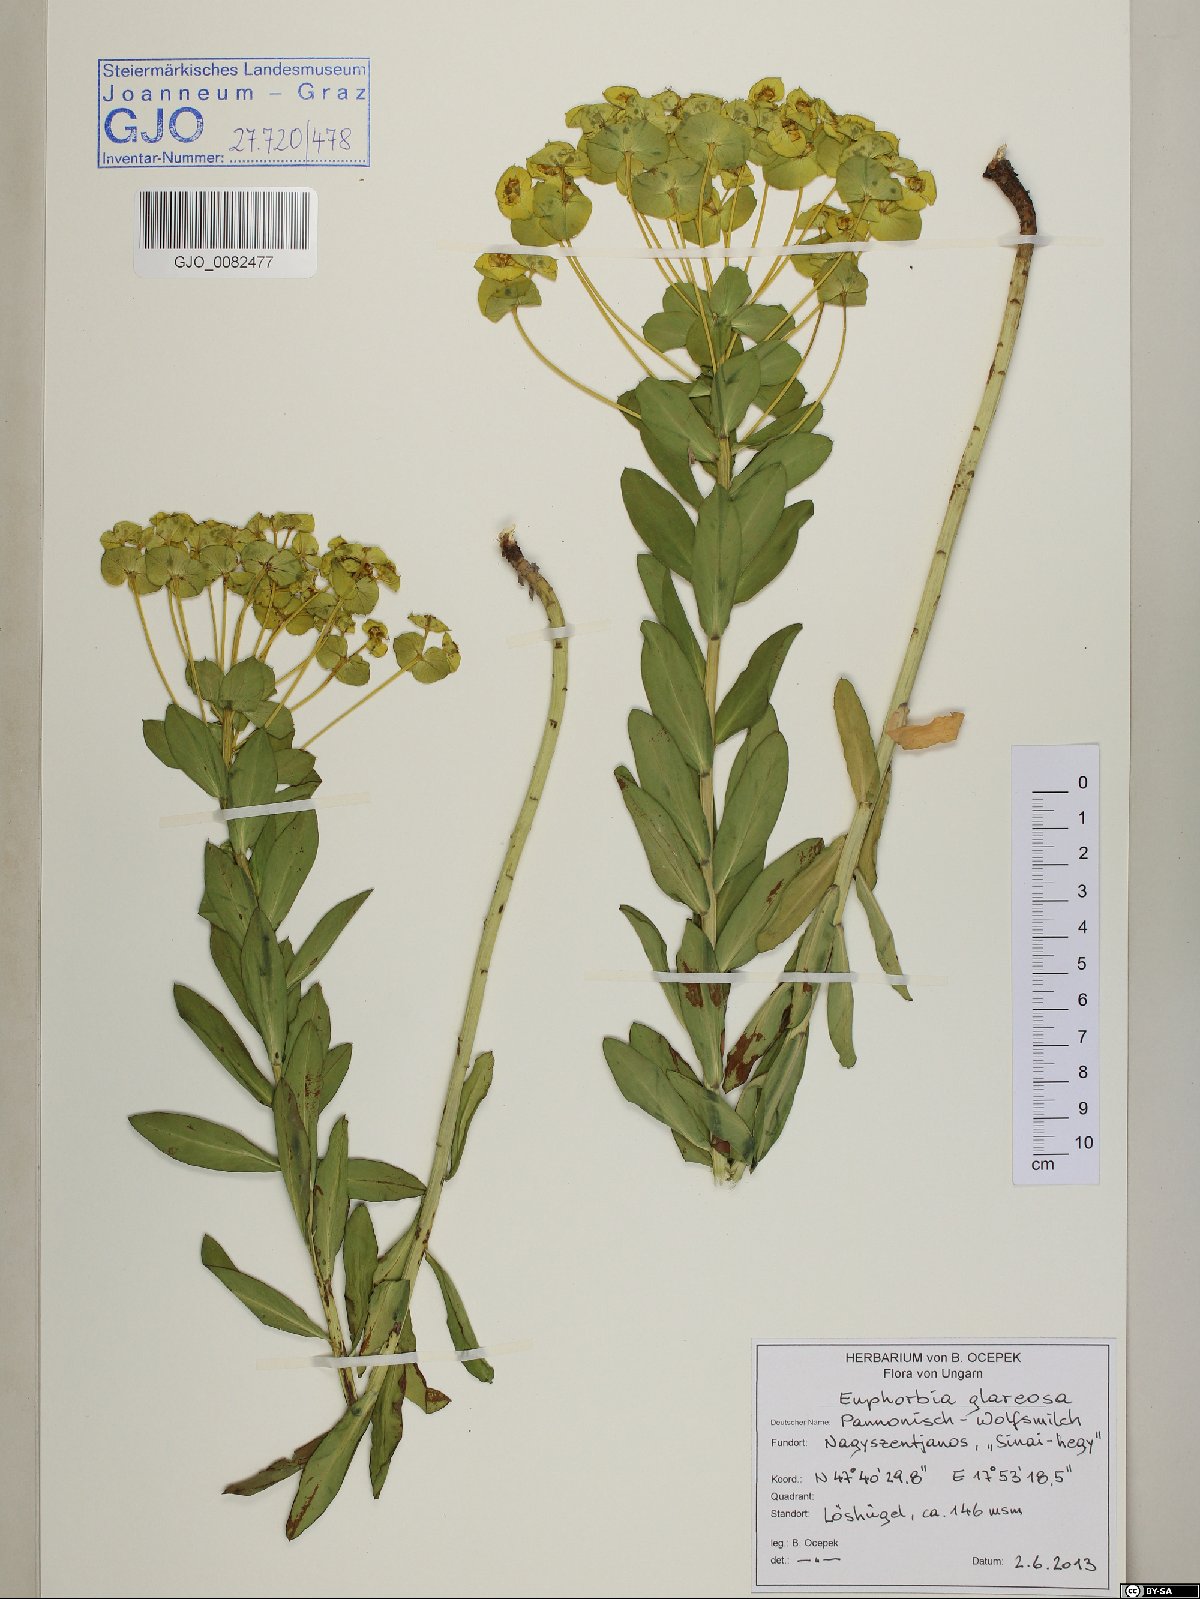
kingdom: Plantae
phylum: Tracheophyta
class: Magnoliopsida
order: Malpighiales
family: Euphorbiaceae
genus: Euphorbia
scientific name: Euphorbia glareosa
